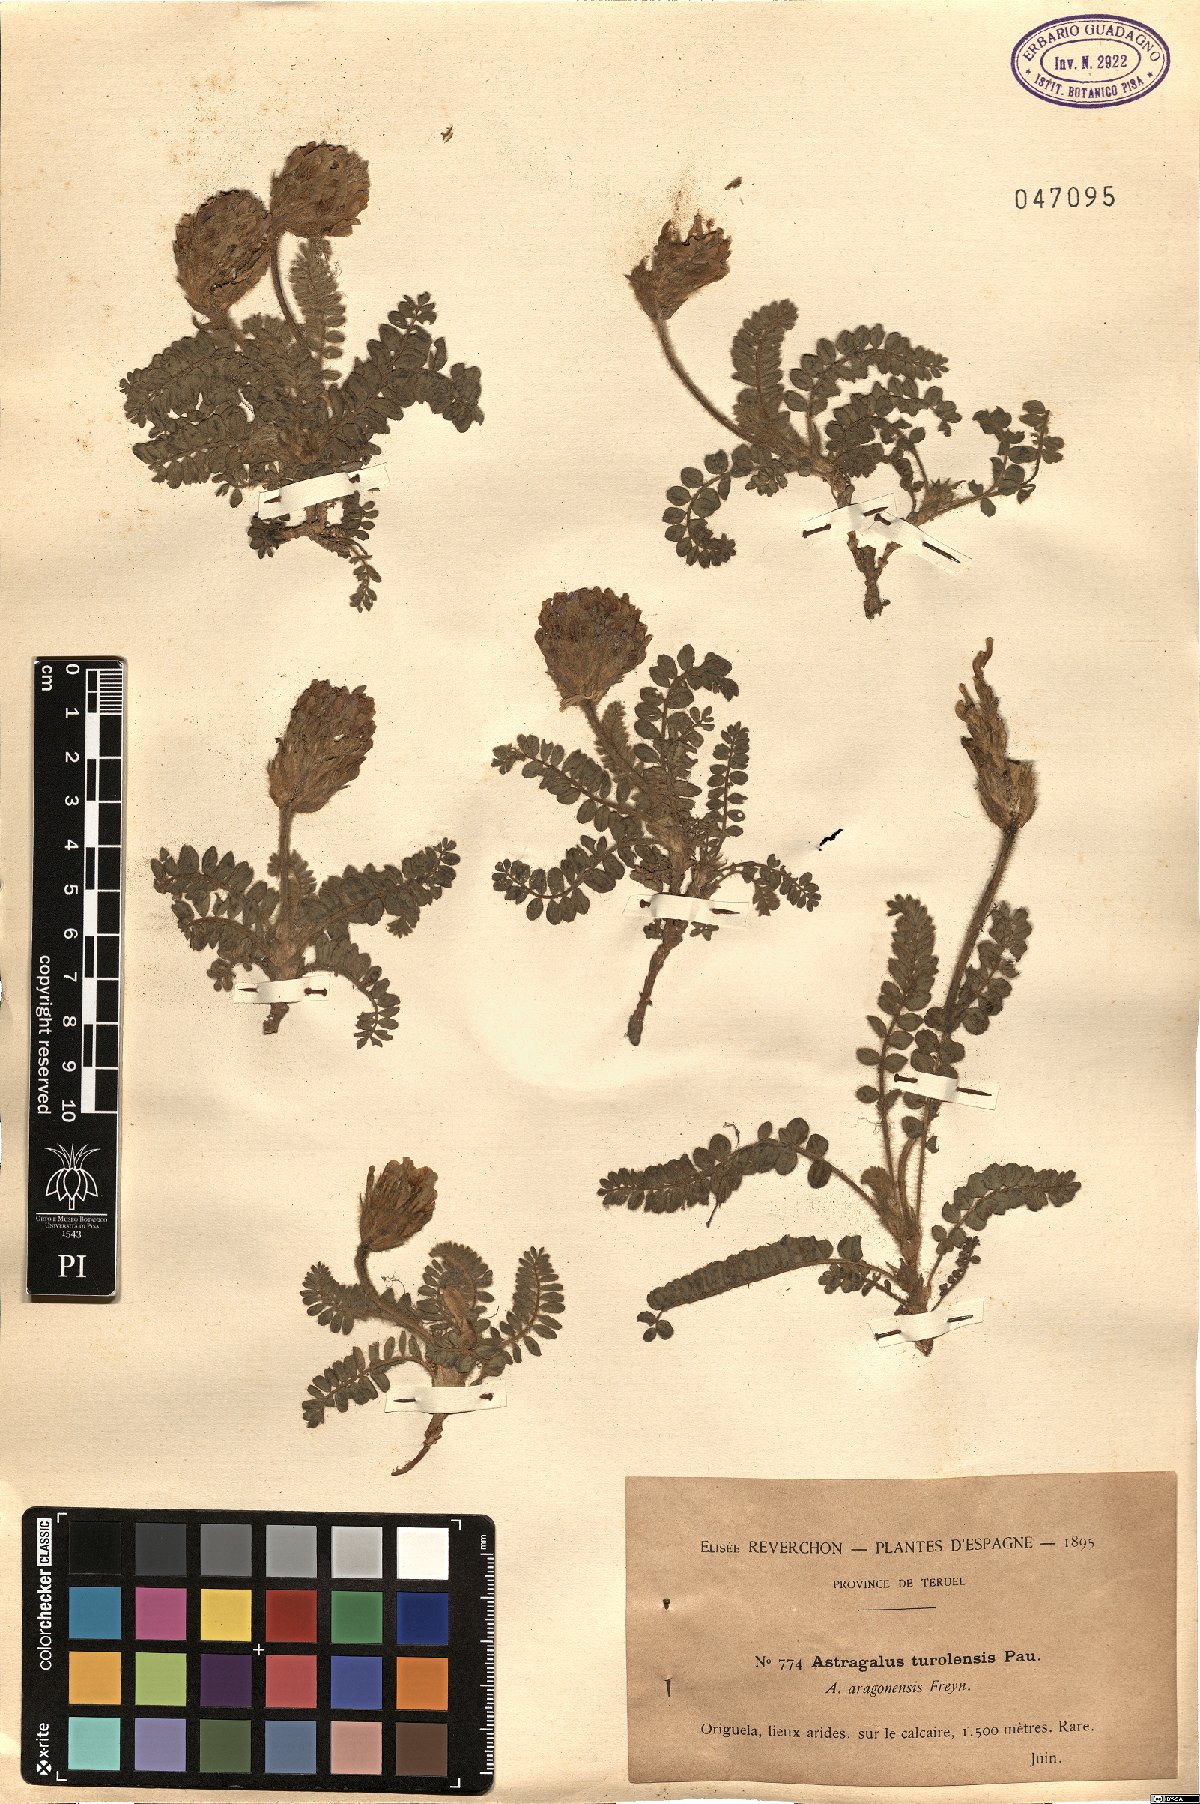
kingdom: Plantae
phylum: Tracheophyta
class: Magnoliopsida
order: Fabales
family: Fabaceae
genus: Astragalus
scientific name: Astragalus turolensis
